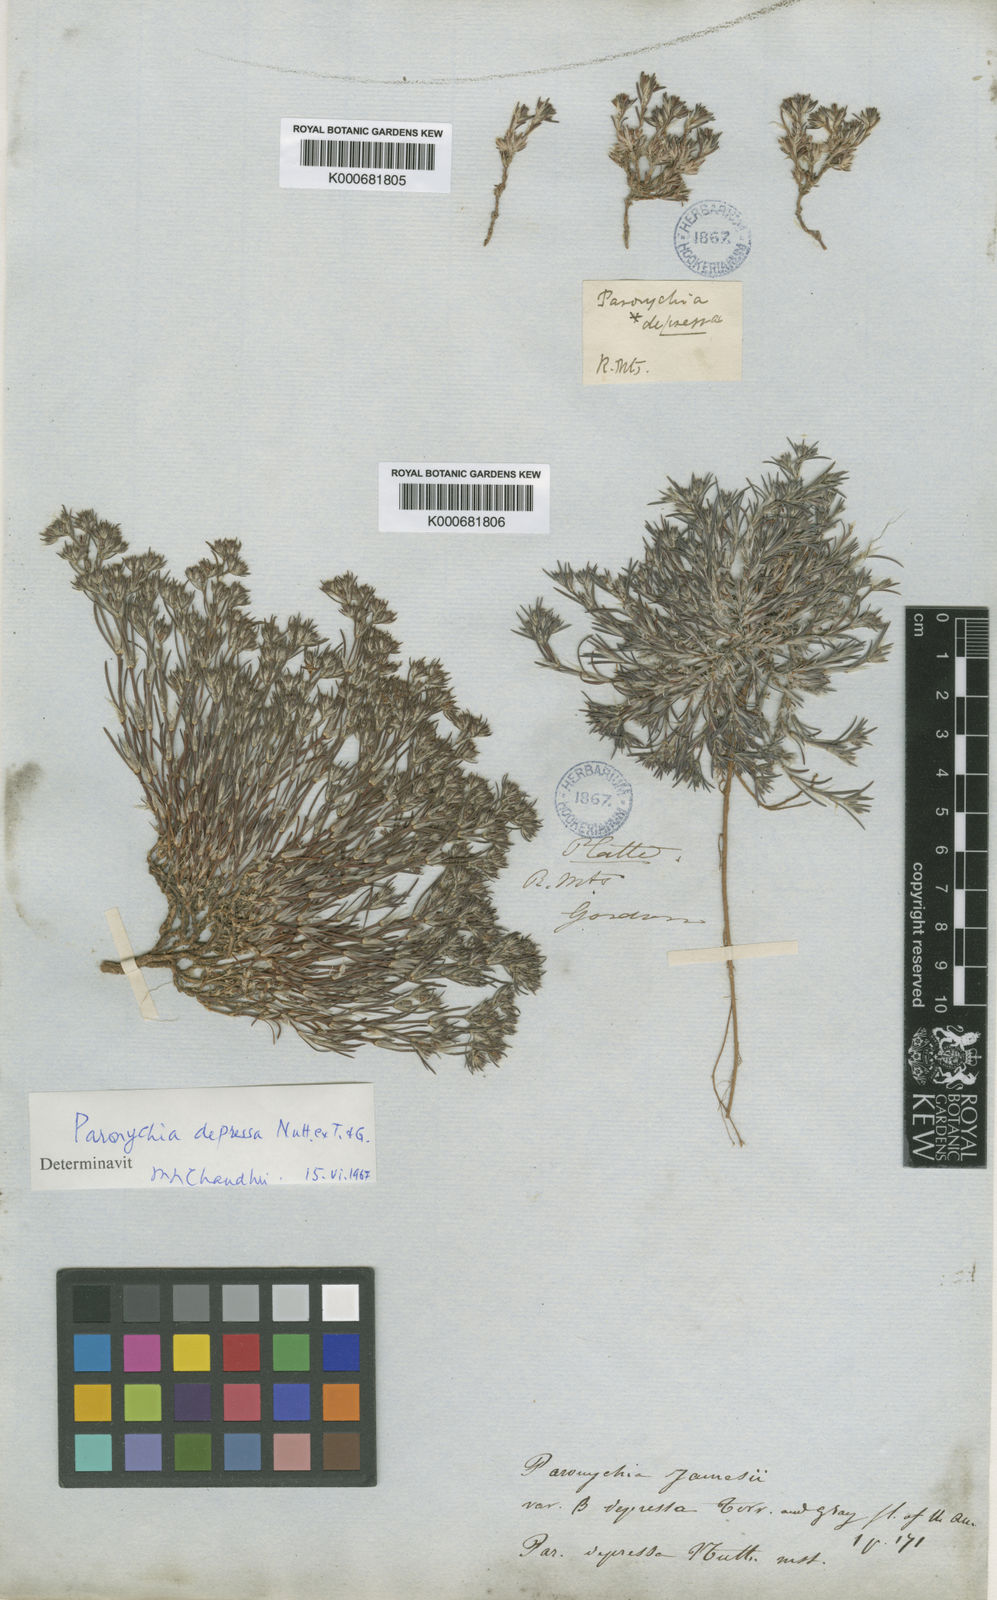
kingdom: Plantae
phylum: Tracheophyta
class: Magnoliopsida
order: Caryophyllales
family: Caryophyllaceae
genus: Paronychia
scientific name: Paronychia depressa
